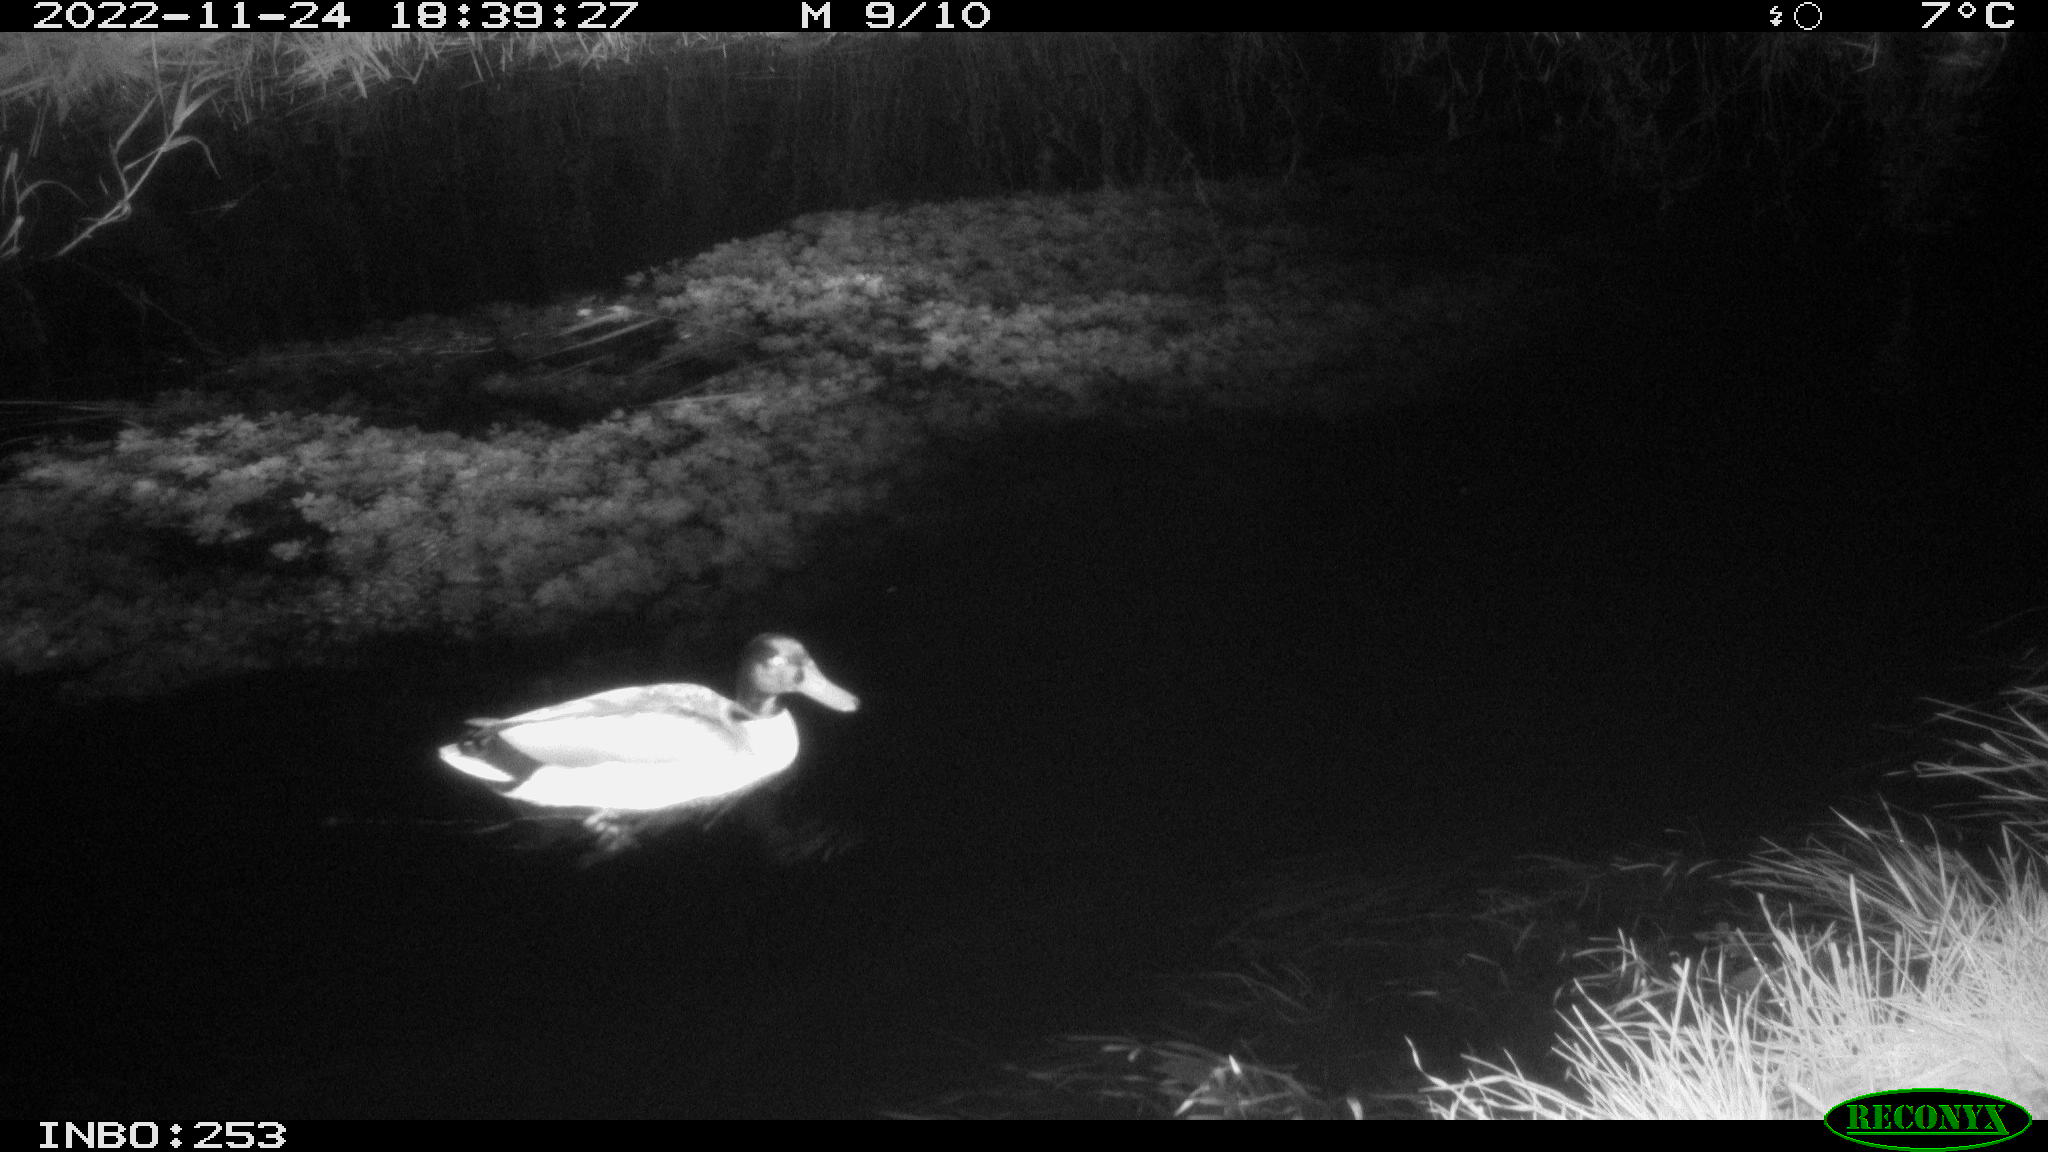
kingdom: Animalia
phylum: Chordata
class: Aves
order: Anseriformes
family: Anatidae
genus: Anas
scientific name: Anas
